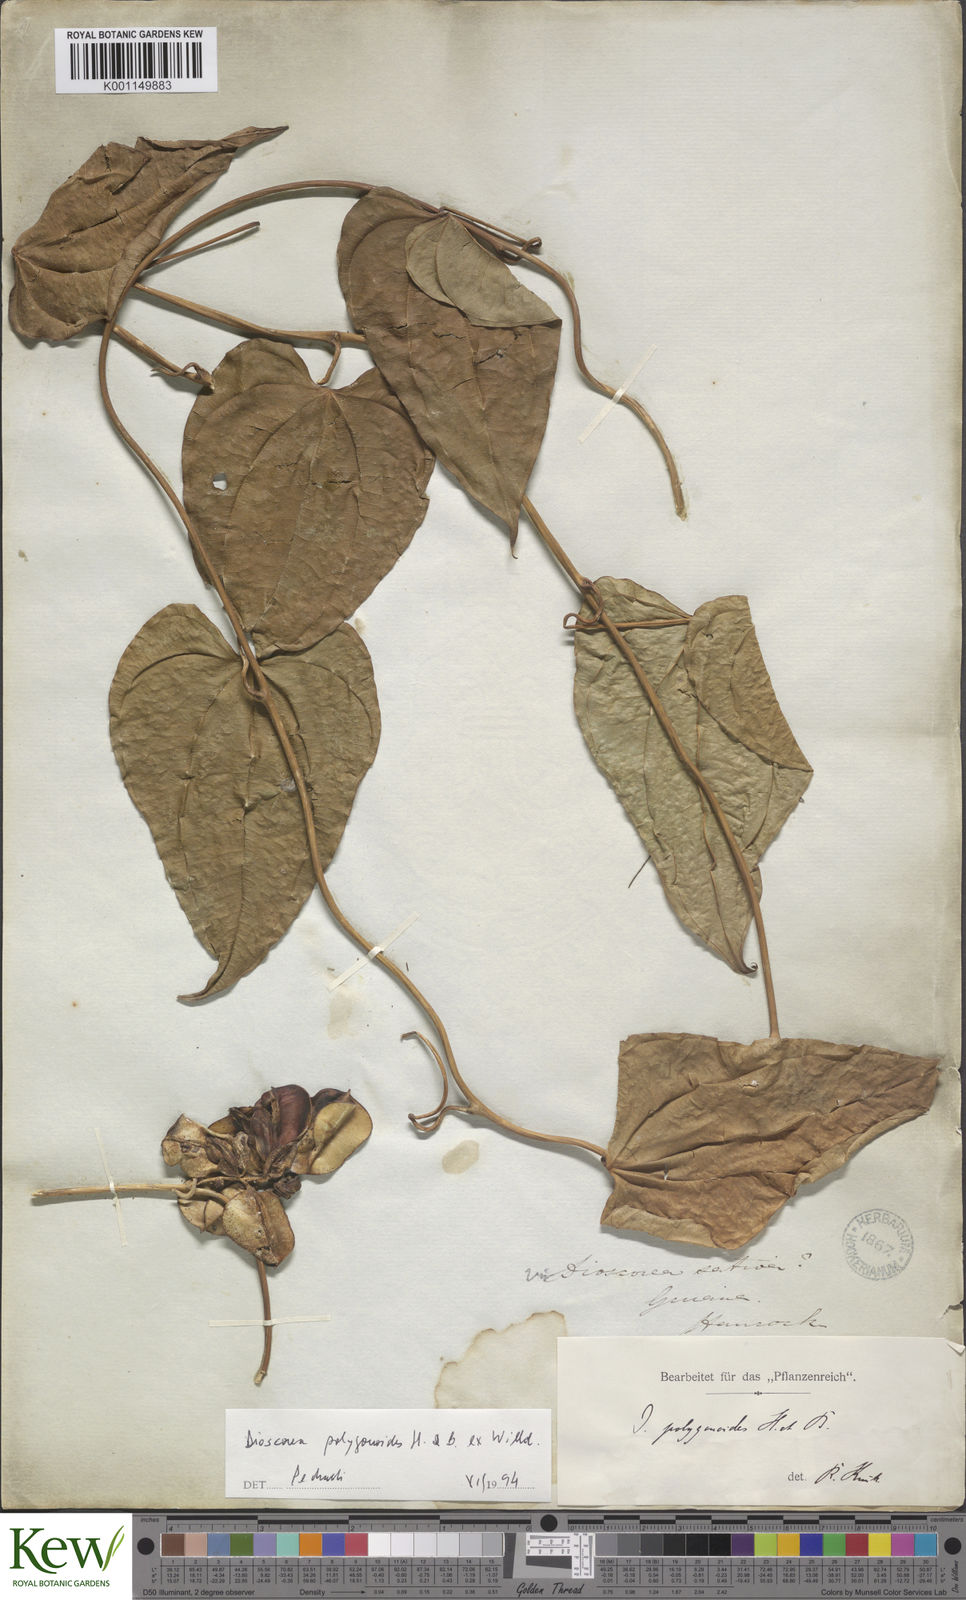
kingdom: Plantae
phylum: Tracheophyta
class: Liliopsida
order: Dioscoreales
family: Dioscoreaceae
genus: Dioscorea
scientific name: Dioscorea polygonoides
